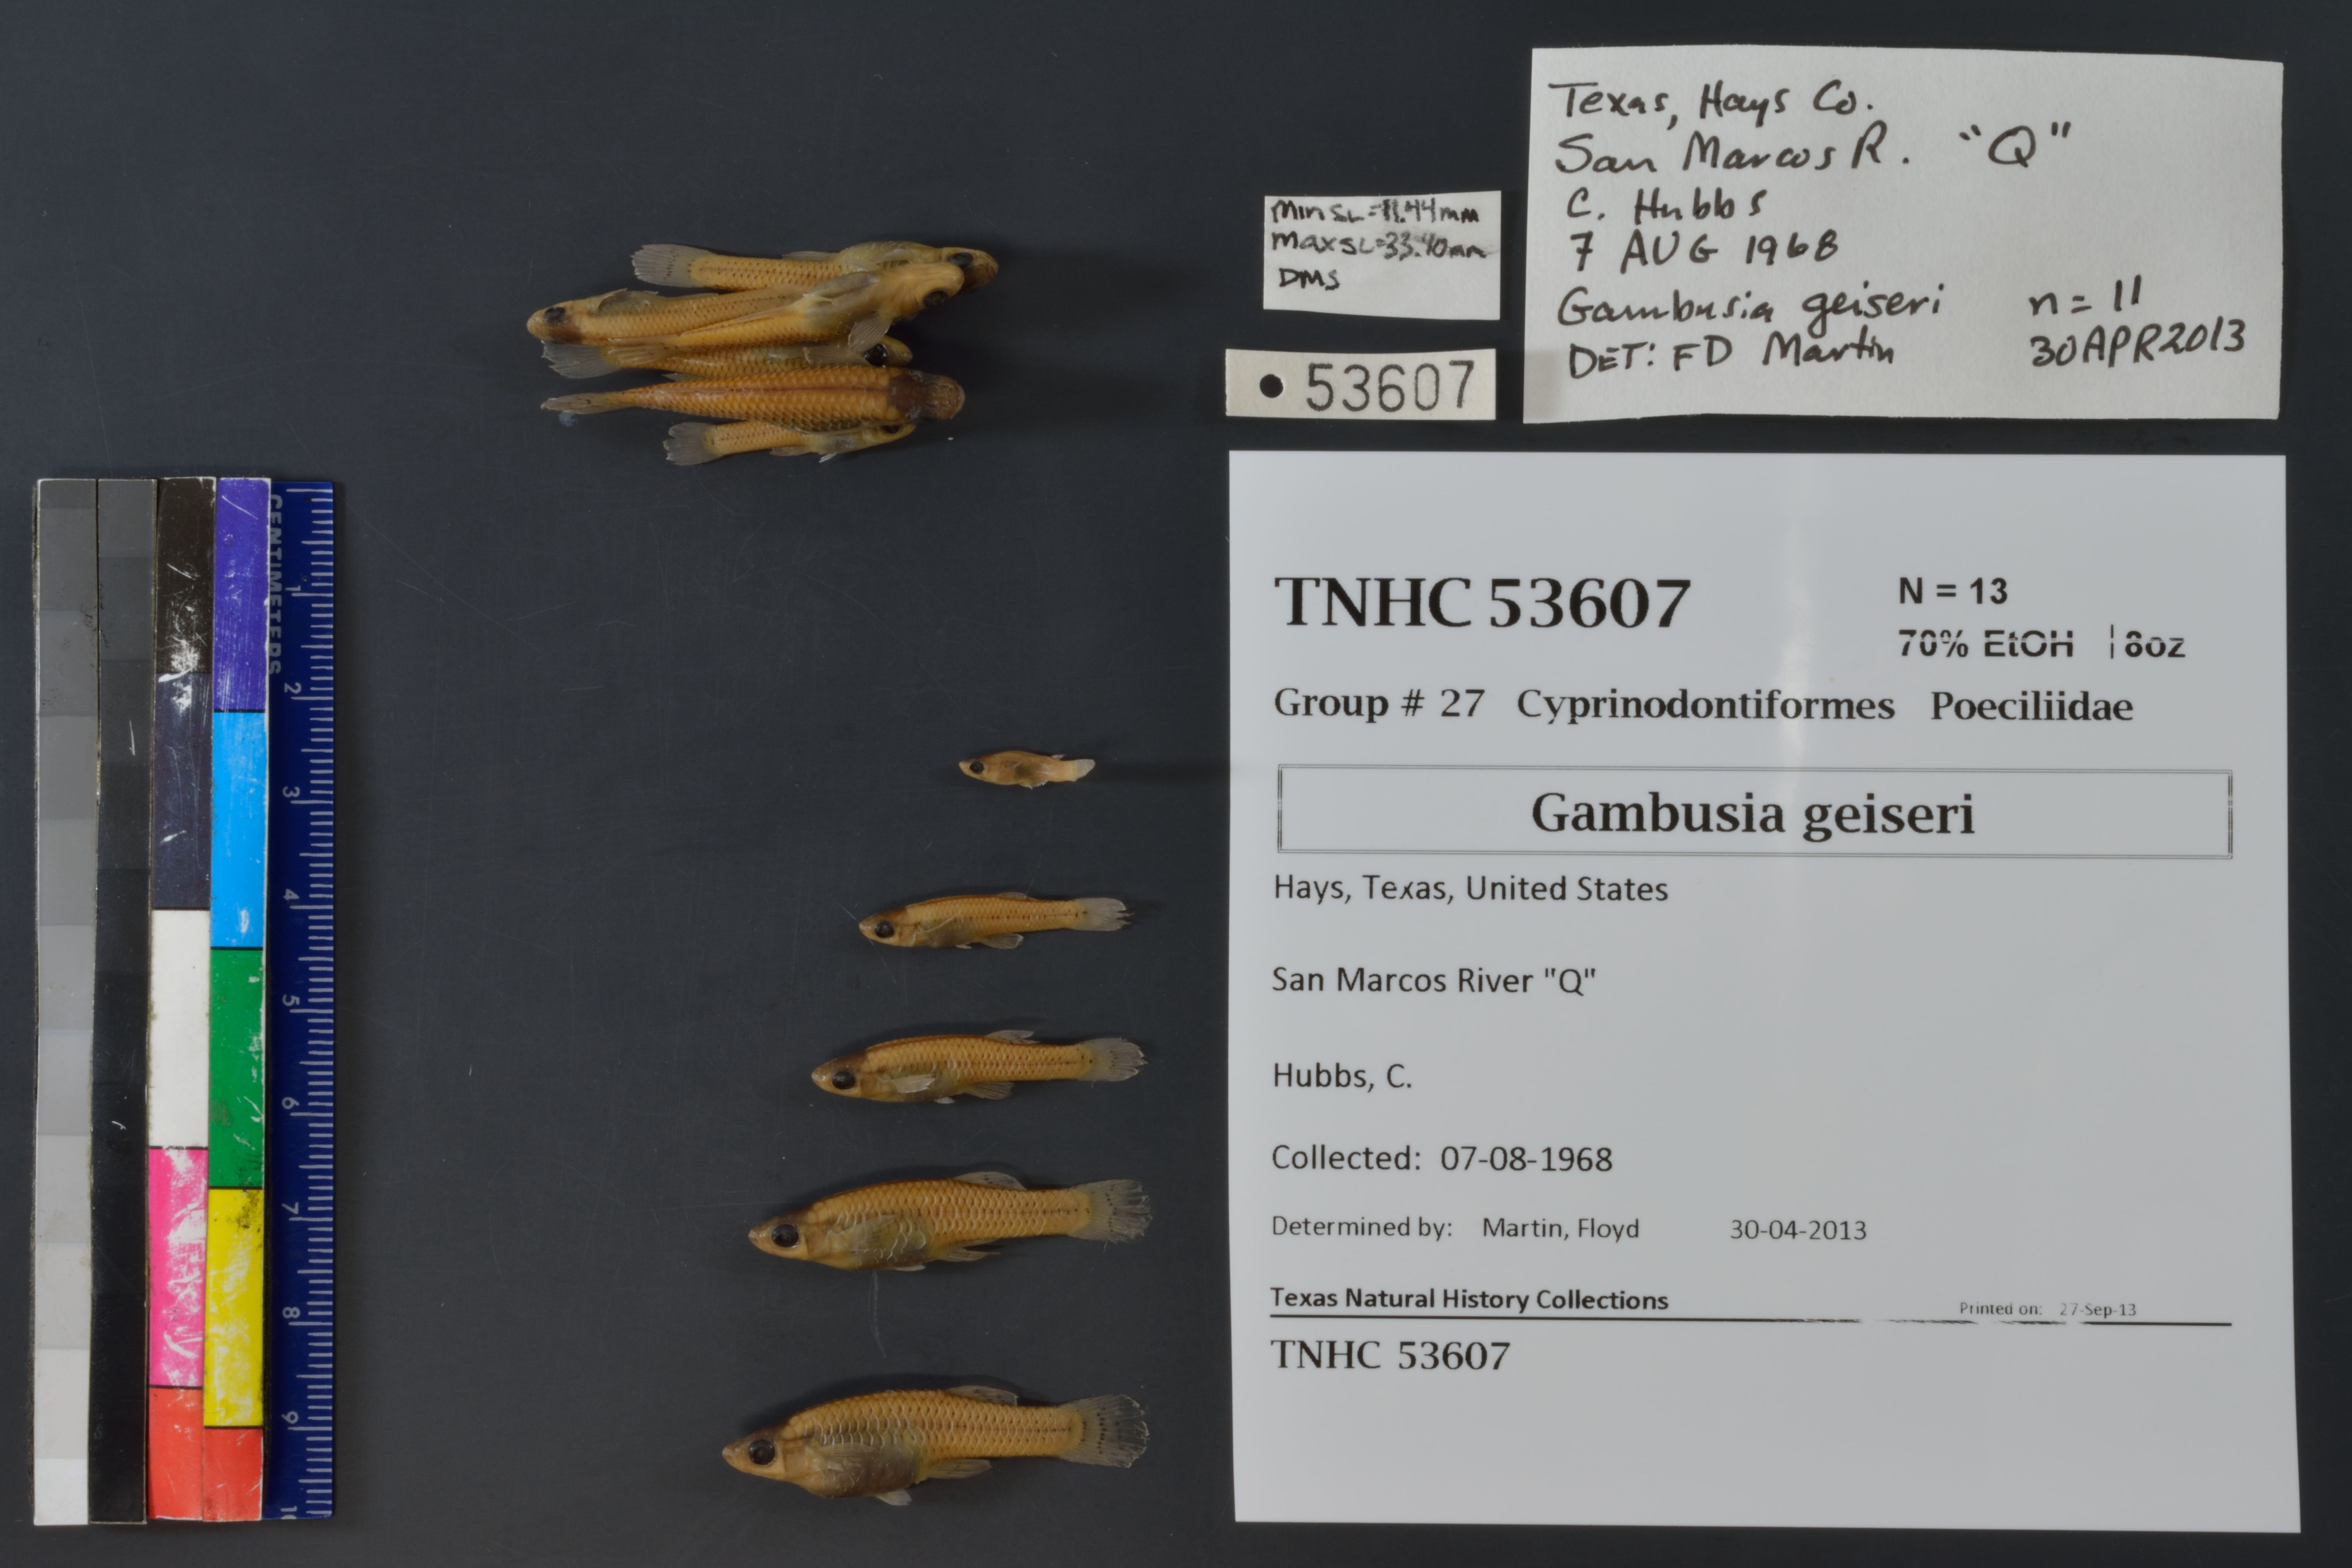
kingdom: Animalia
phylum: Chordata
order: Cyprinodontiformes
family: Poeciliidae
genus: Gambusia
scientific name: Gambusia geiseri
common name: Largespring gambusia
